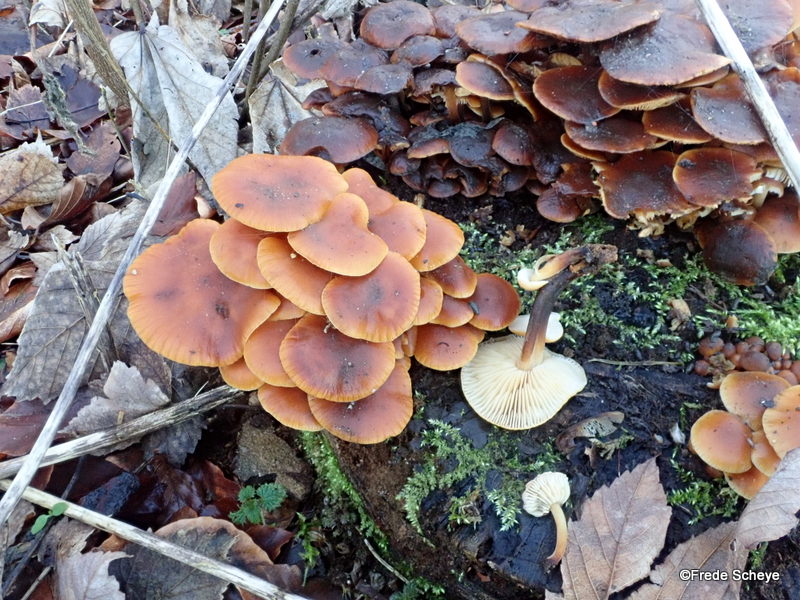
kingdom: Fungi
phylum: Basidiomycota
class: Agaricomycetes
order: Agaricales
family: Physalacriaceae
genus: Flammulina
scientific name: Flammulina velutipes
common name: gul fløjlsfod
